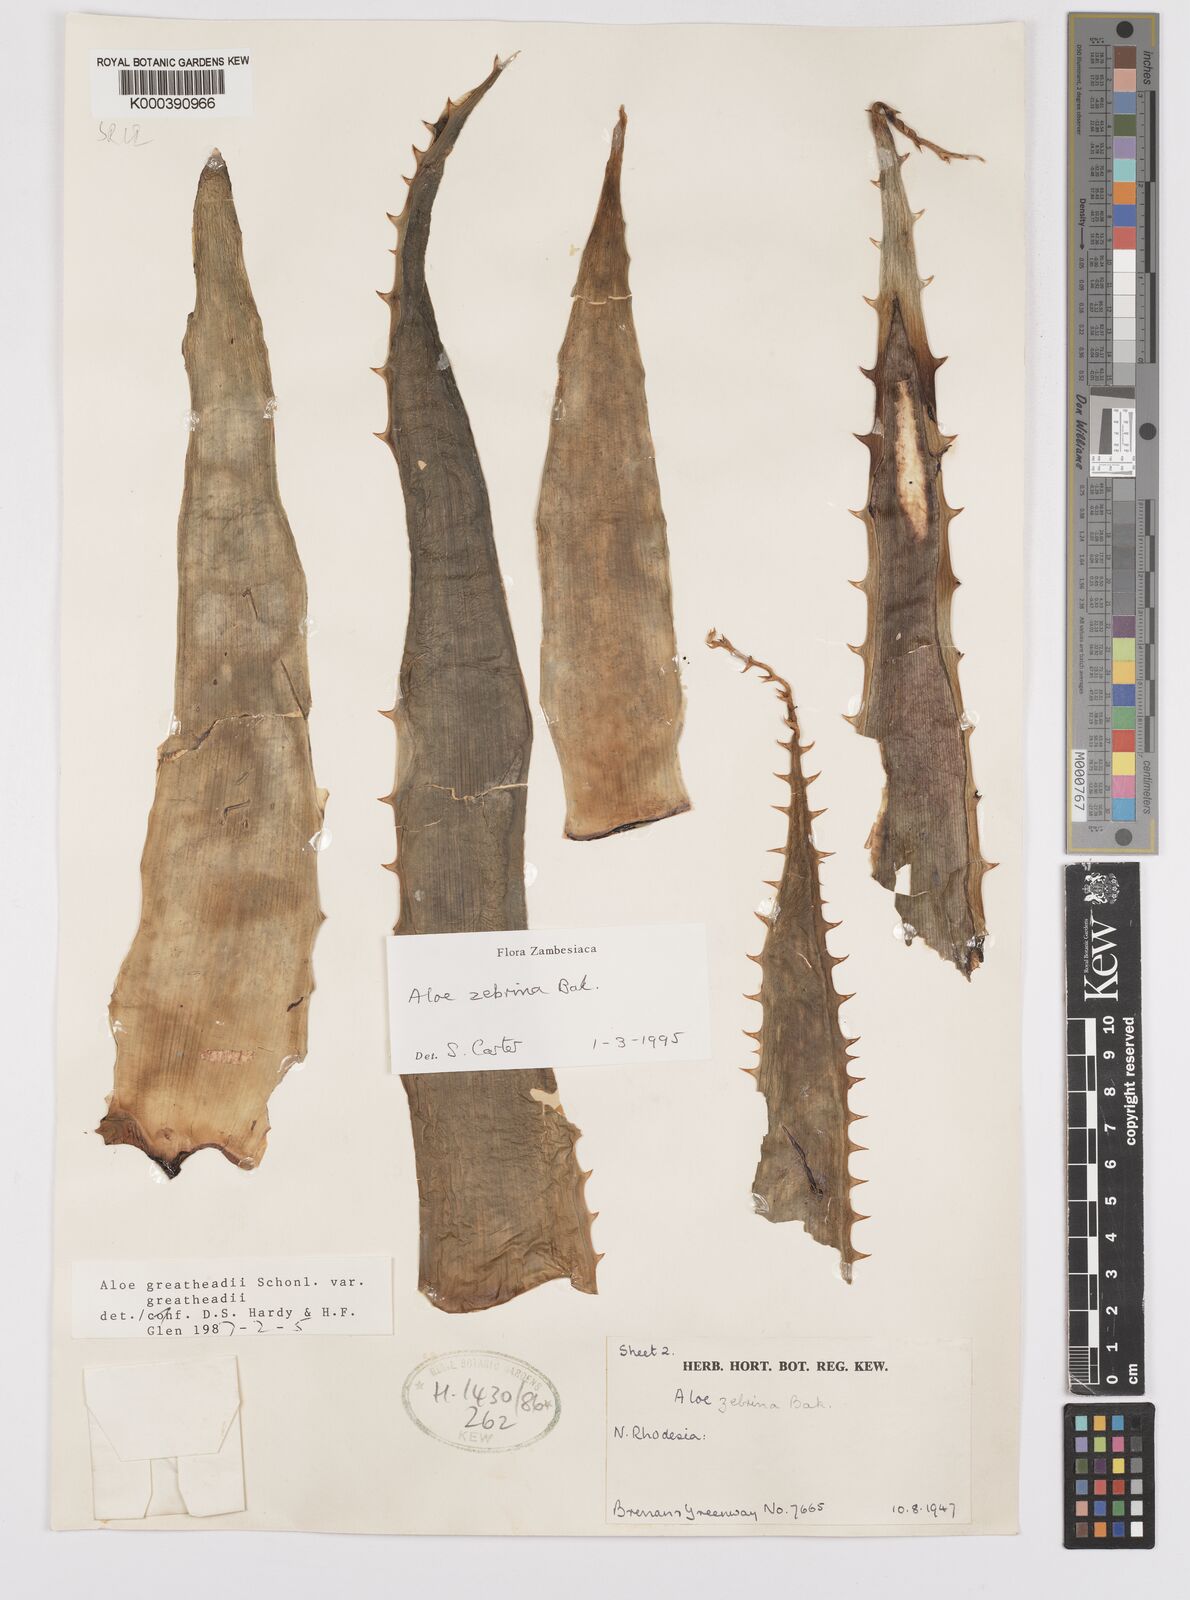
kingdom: Plantae
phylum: Tracheophyta
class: Liliopsida
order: Asparagales
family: Asphodelaceae
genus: Aloe
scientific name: Aloe zebrina
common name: Zebra-leaf aloe
